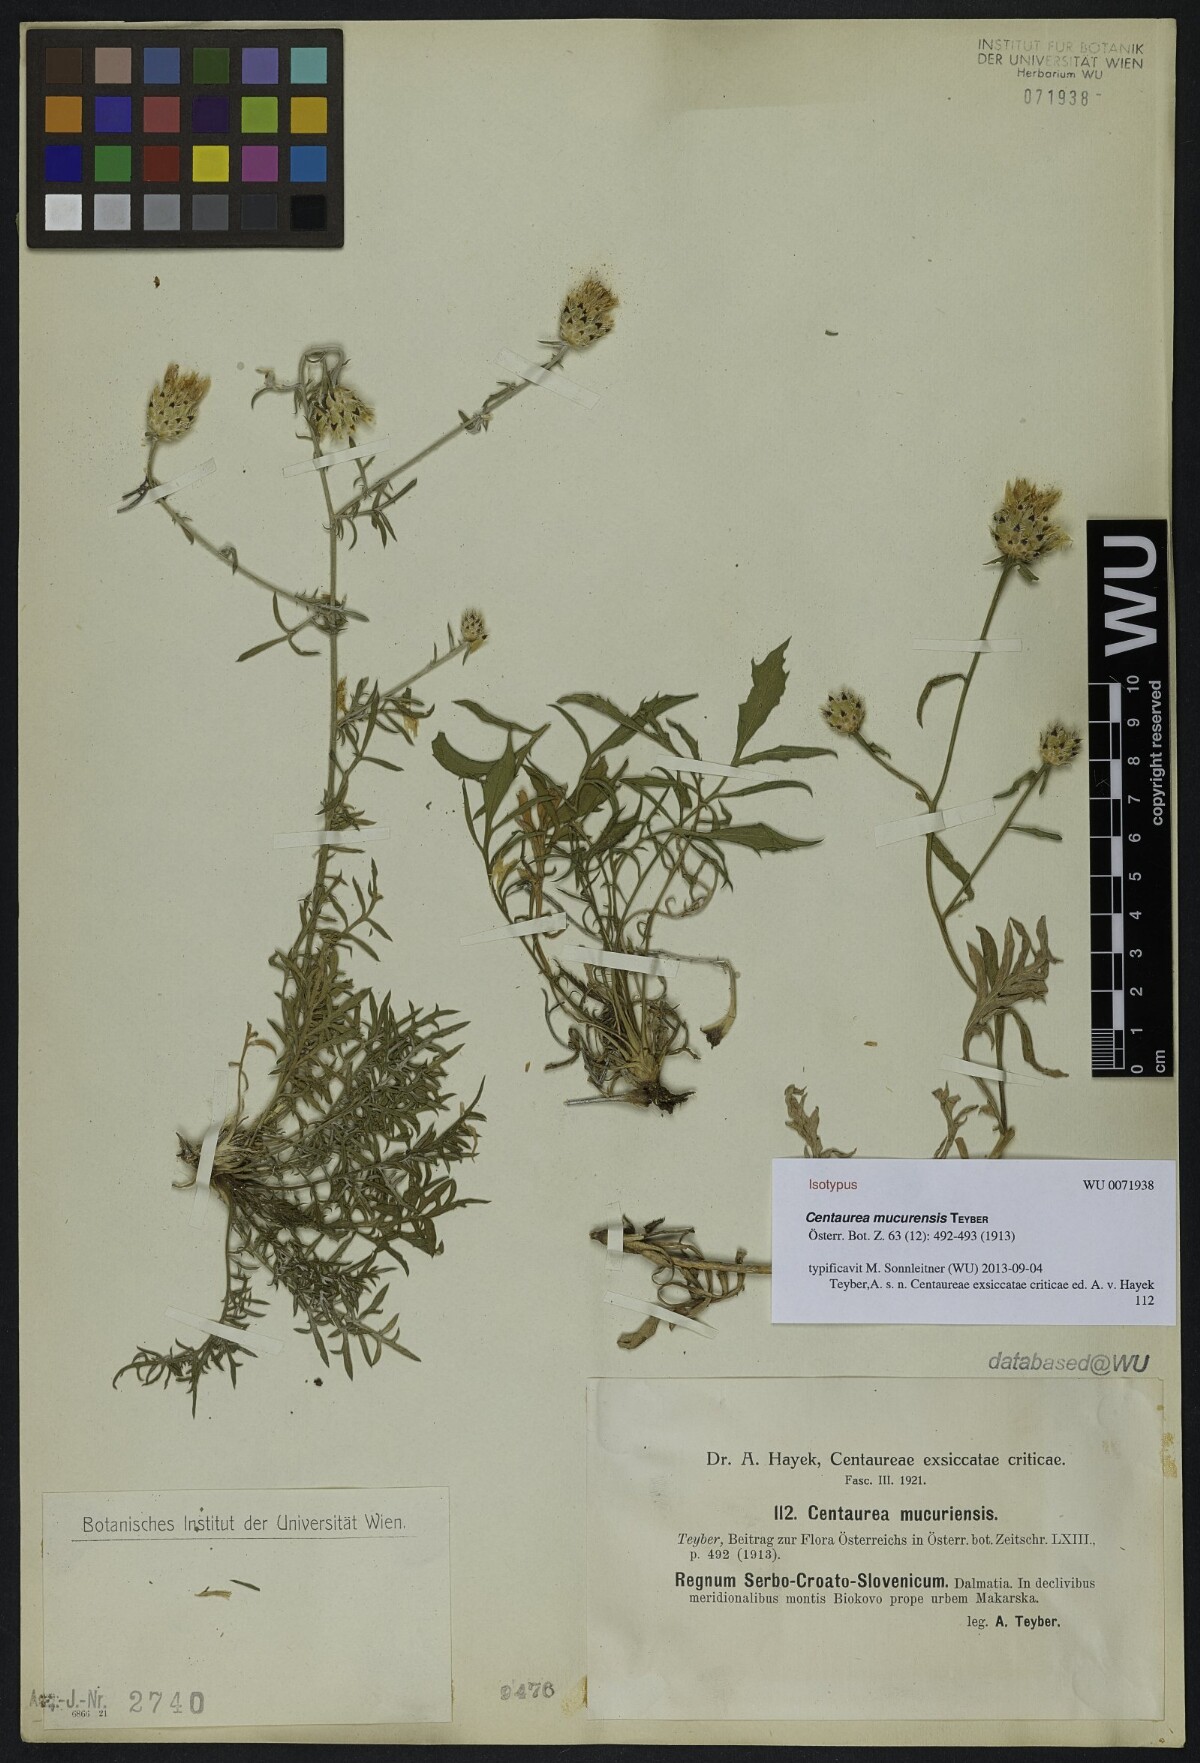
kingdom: Plantae
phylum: Tracheophyta
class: Magnoliopsida
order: Asterales
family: Asteraceae
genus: Centaurea
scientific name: Centaurea mucurensis
